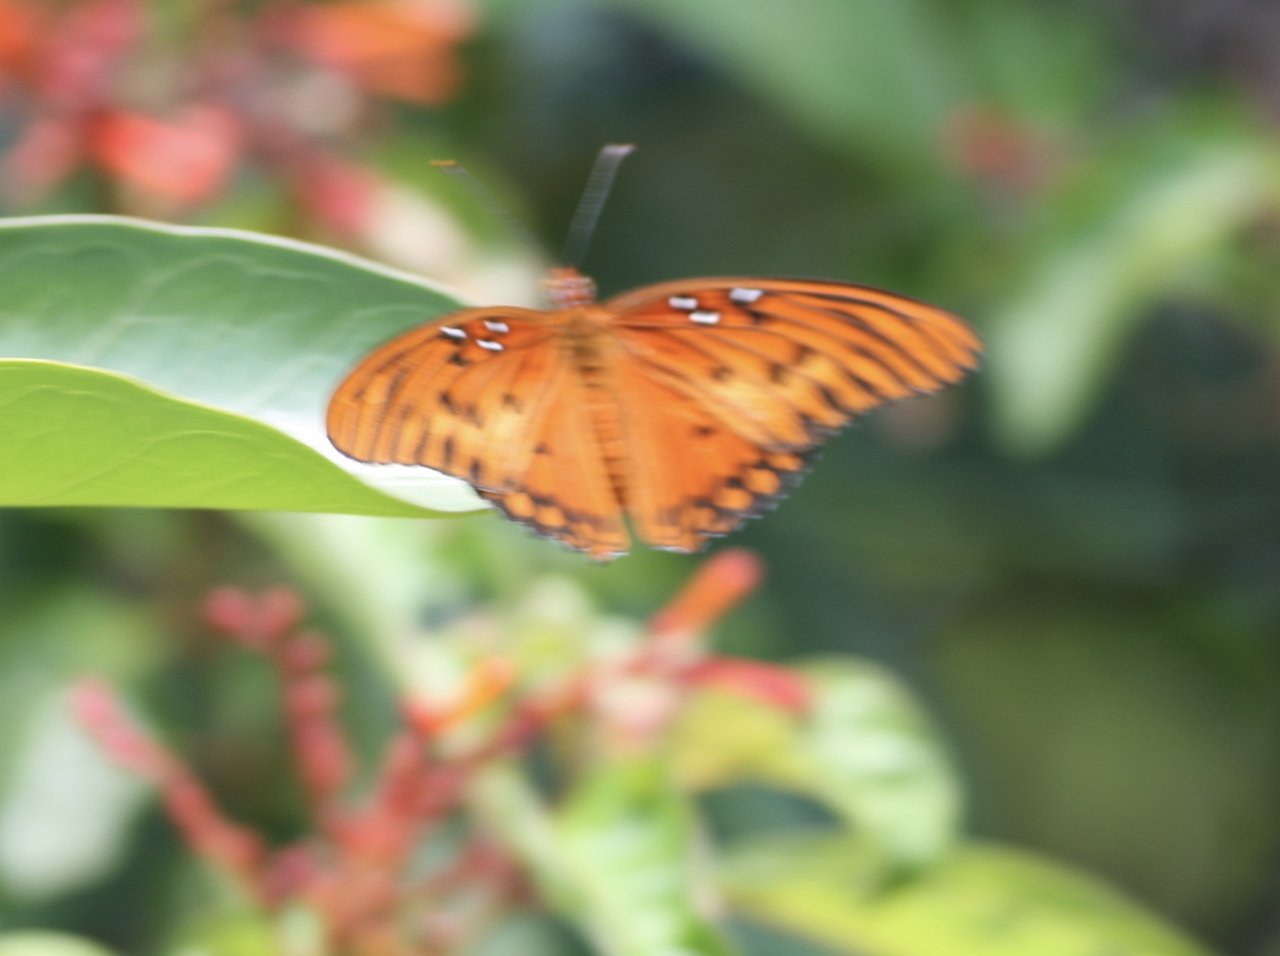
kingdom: Animalia
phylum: Arthropoda
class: Insecta
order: Lepidoptera
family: Nymphalidae
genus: Dione
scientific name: Dione vanillae
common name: Gulf Fritillary
